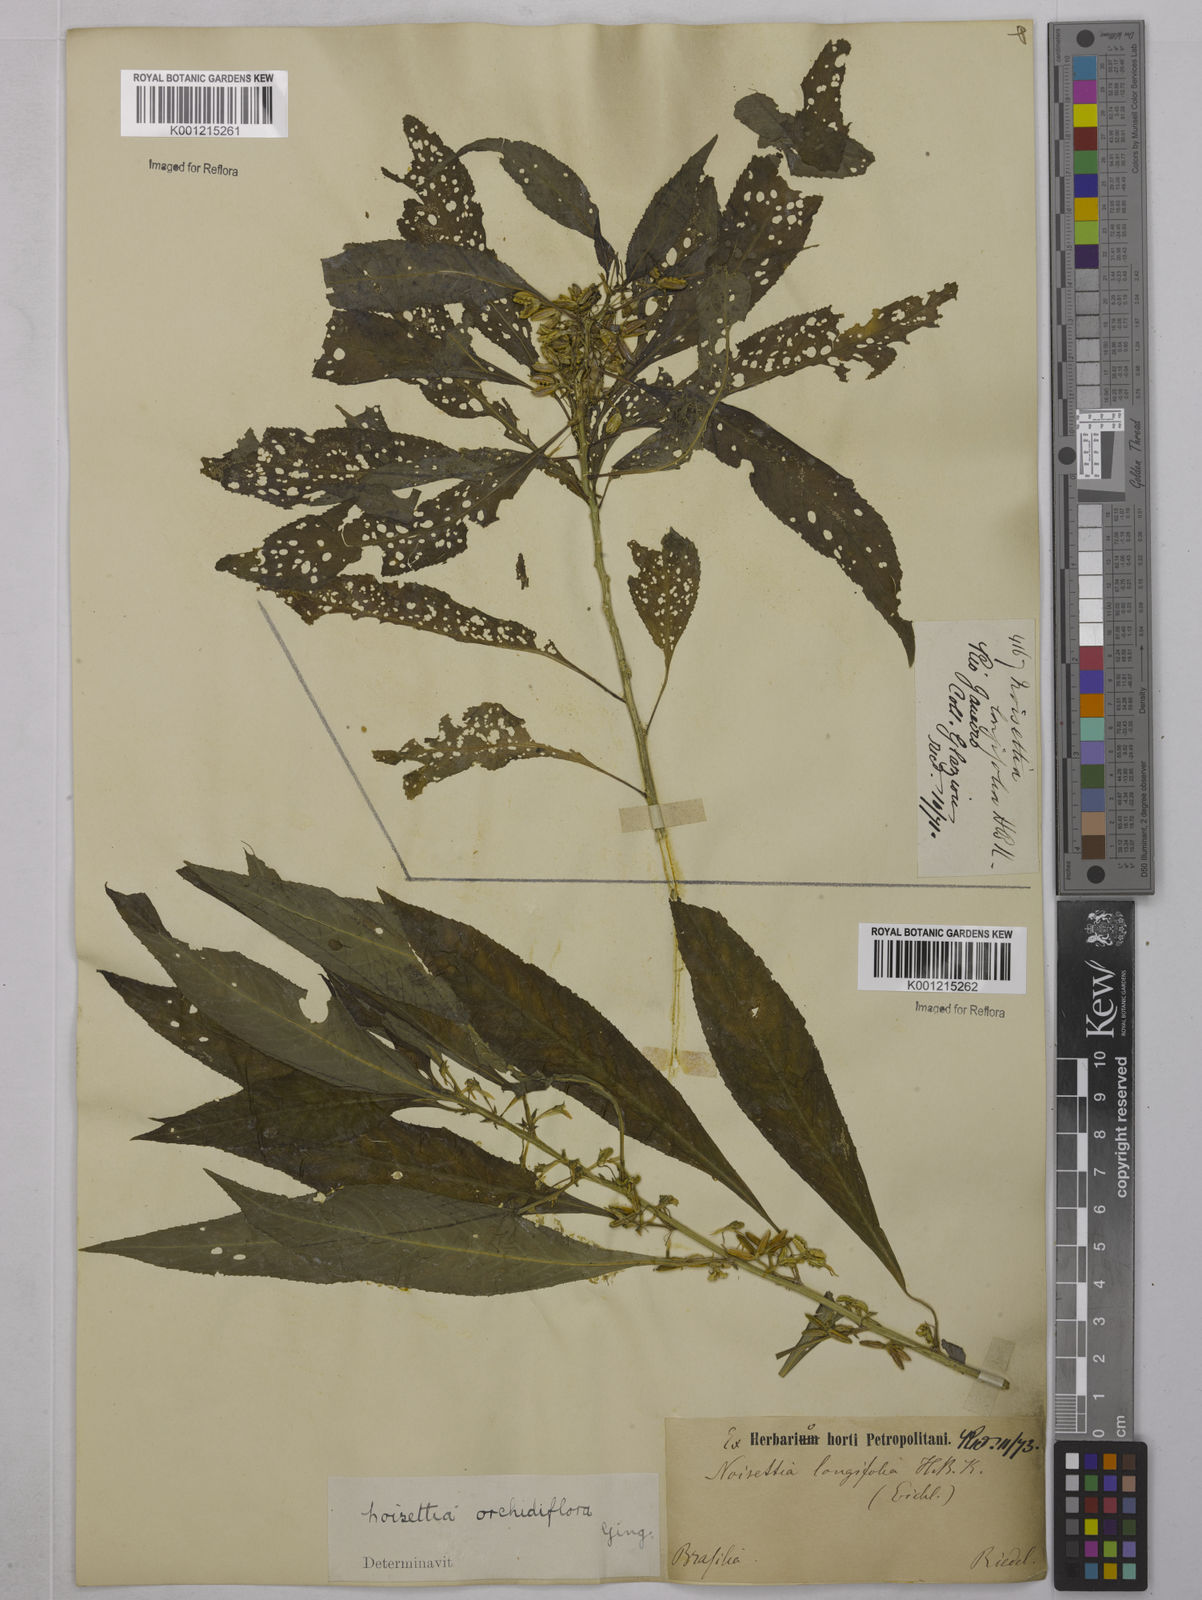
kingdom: Plantae
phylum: Tracheophyta
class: Magnoliopsida
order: Malpighiales
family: Violaceae
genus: Noisettia
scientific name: Noisettia orchidiflora
